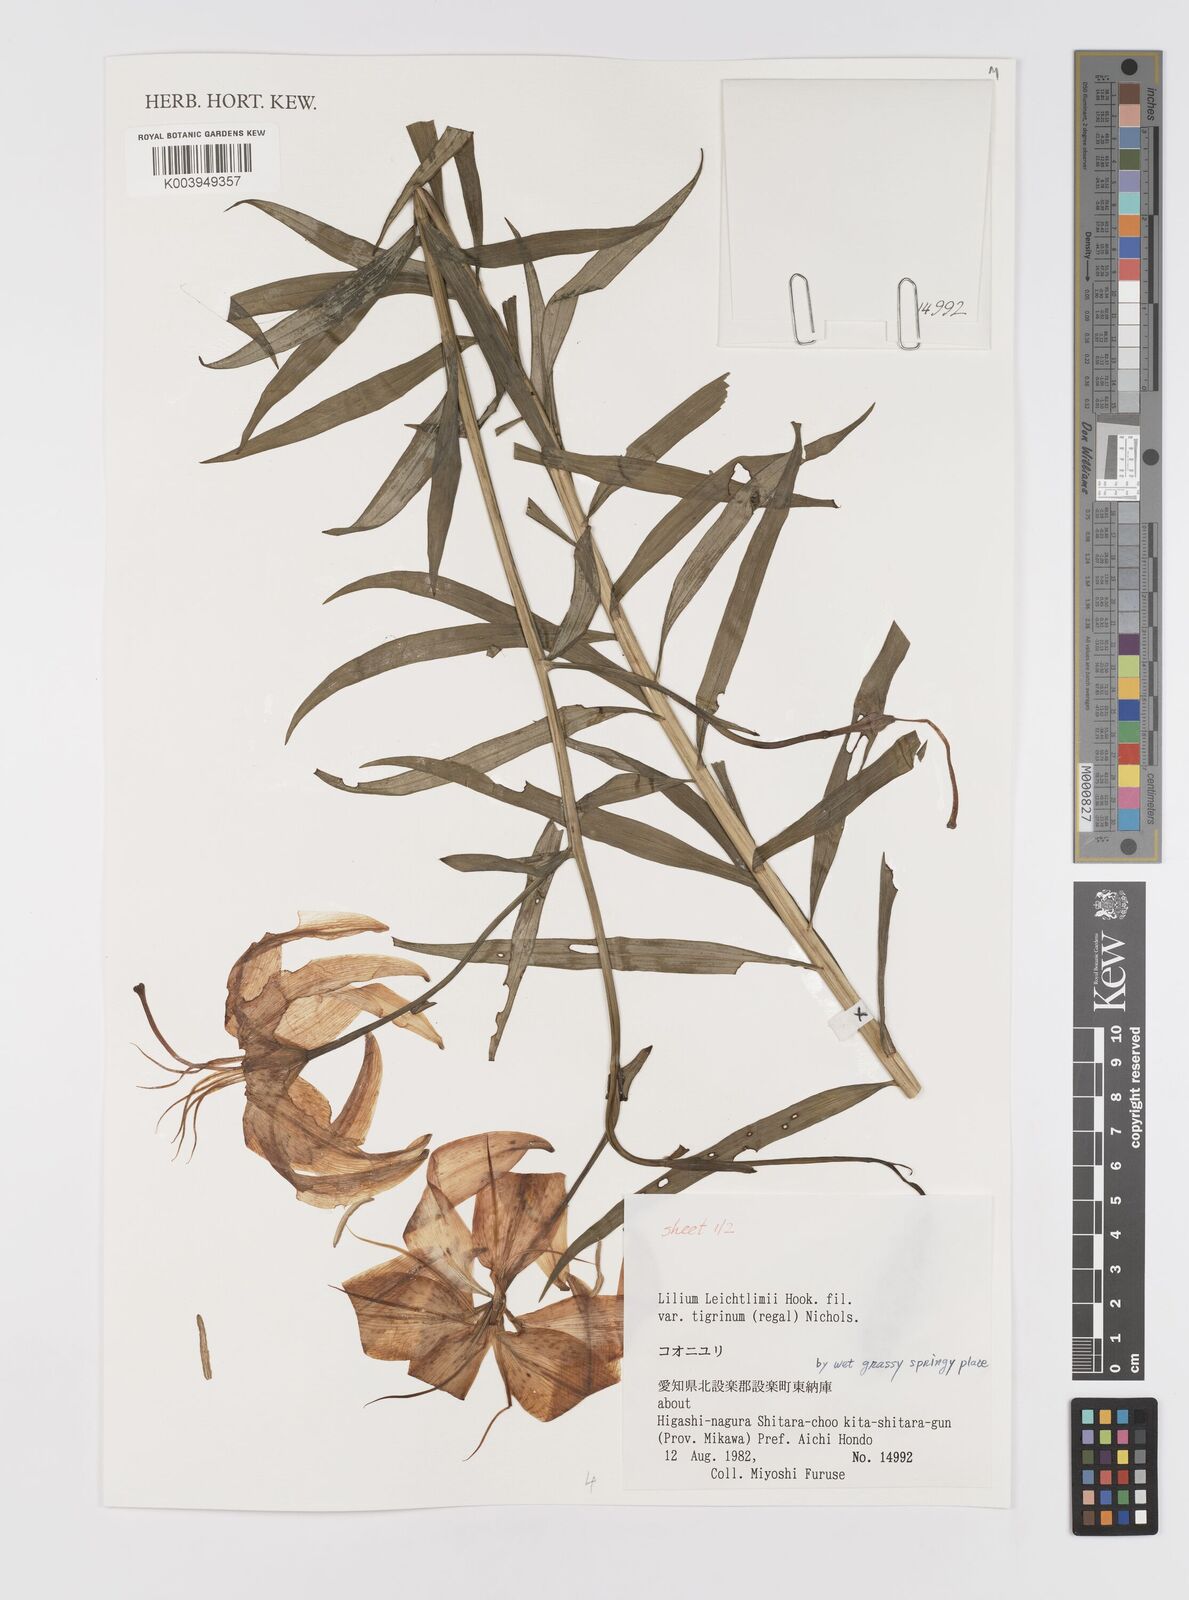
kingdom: Plantae
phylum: Tracheophyta
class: Liliopsida
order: Liliales
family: Liliaceae
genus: Lilium
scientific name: Lilium leichtlinii
